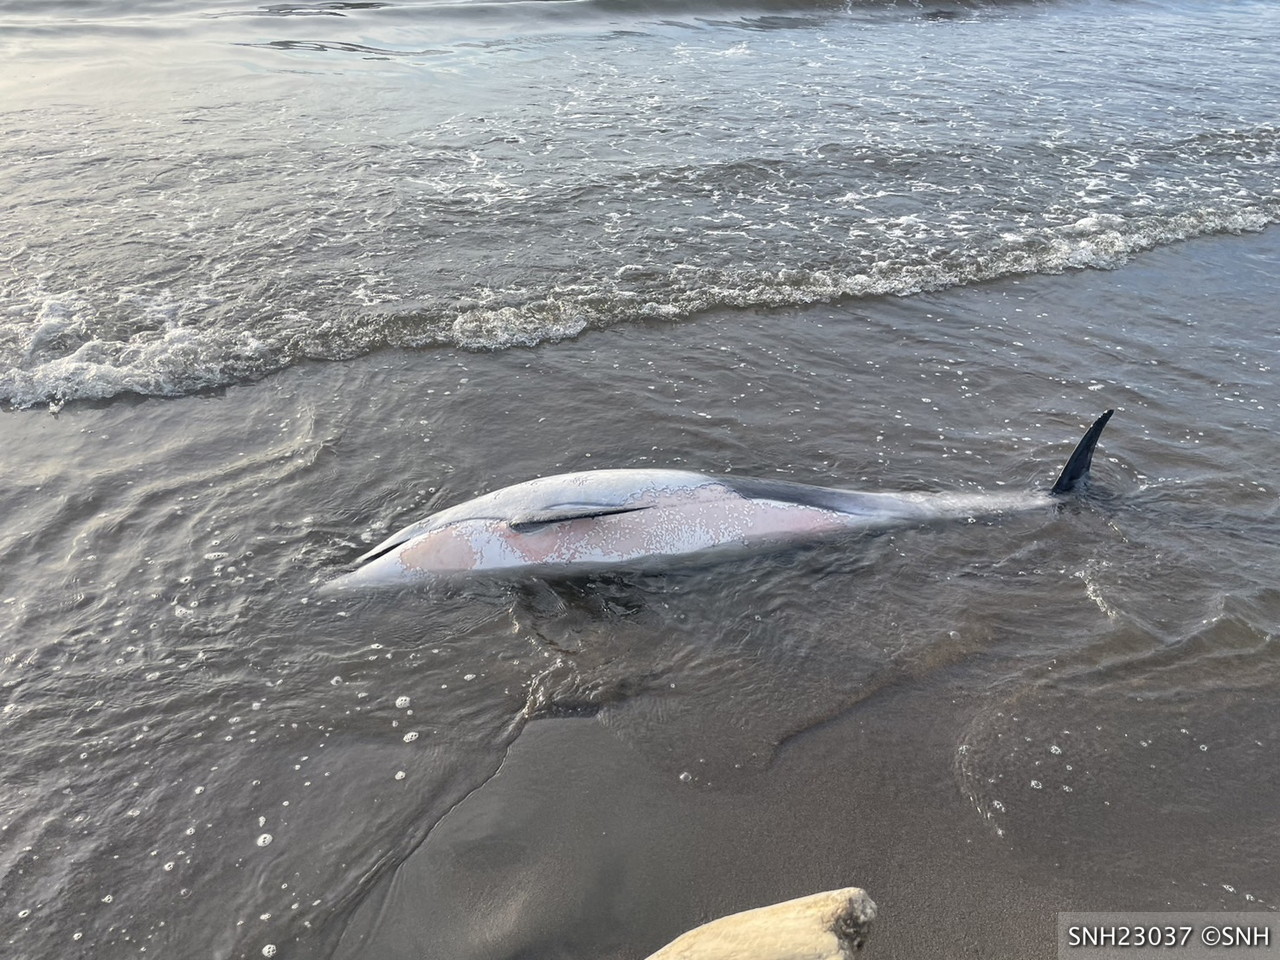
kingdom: Animalia
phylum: Chordata
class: Mammalia
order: Cetacea
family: Delphinidae
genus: Lagenorhynchus
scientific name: Lagenorhynchus obliquidens
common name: Pacific white-sided dolphin
